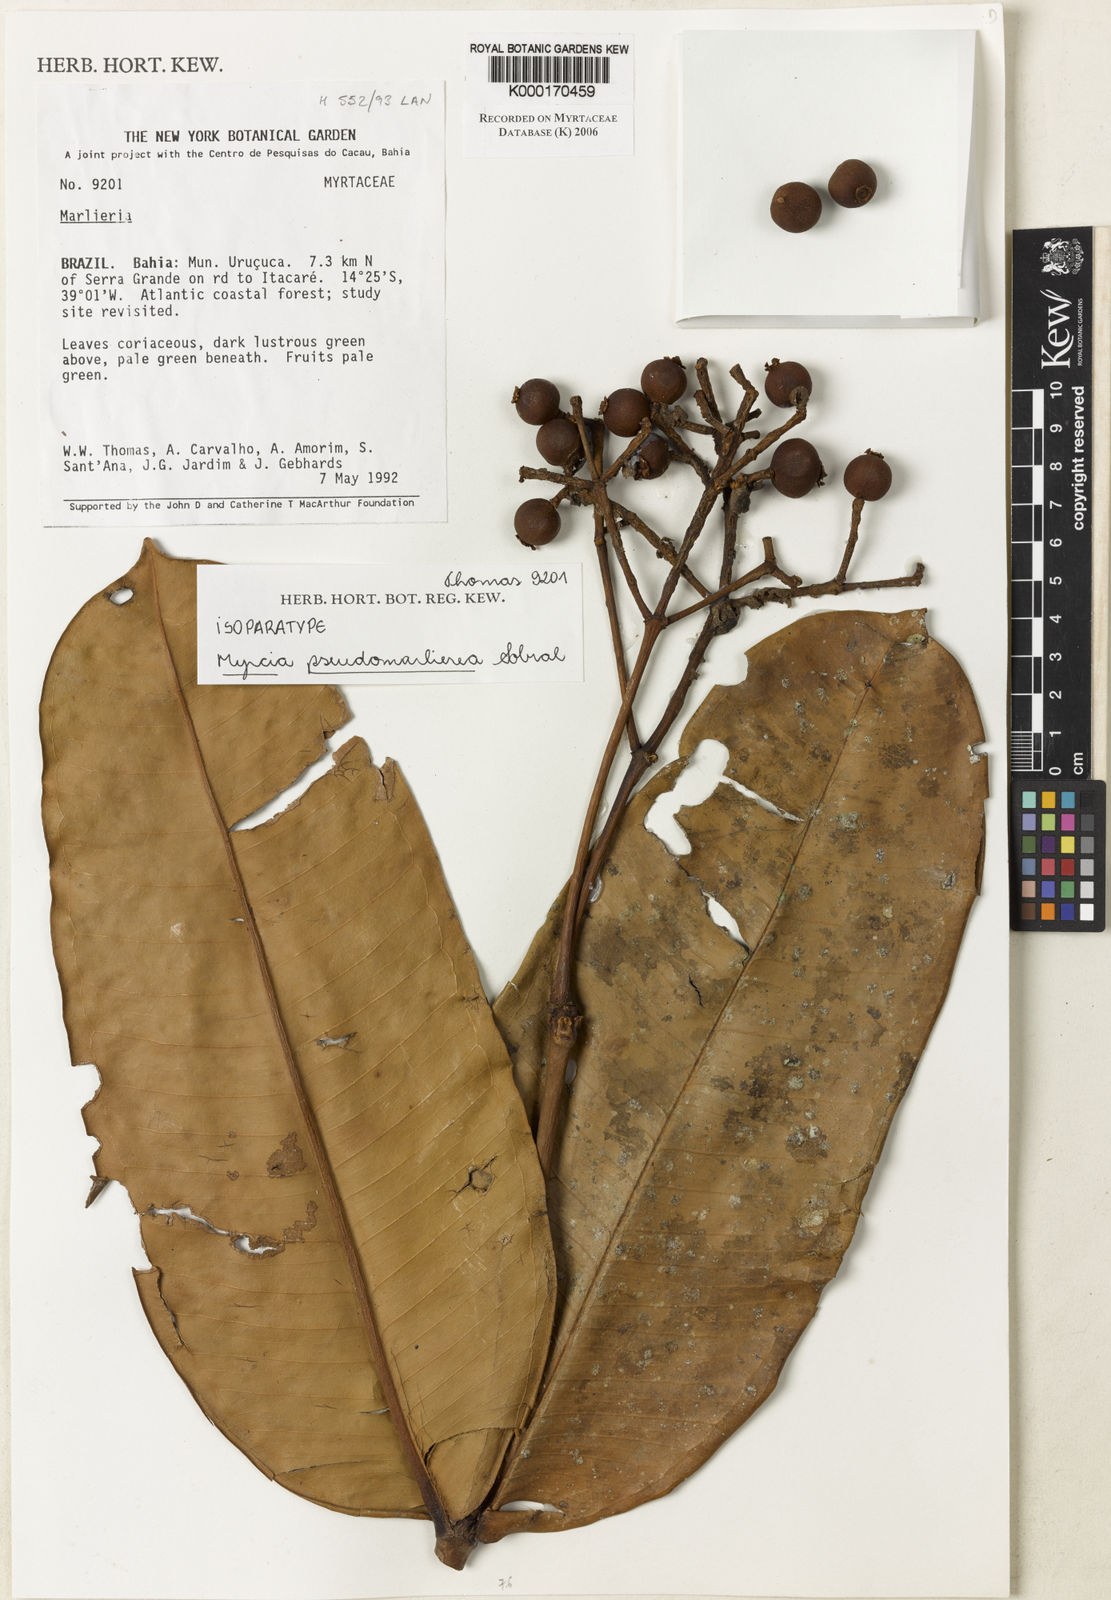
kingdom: Plantae
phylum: Tracheophyta
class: Magnoliopsida
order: Myrtales
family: Myrtaceae
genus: Myrcia
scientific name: Myrcia pseudomarlierea
